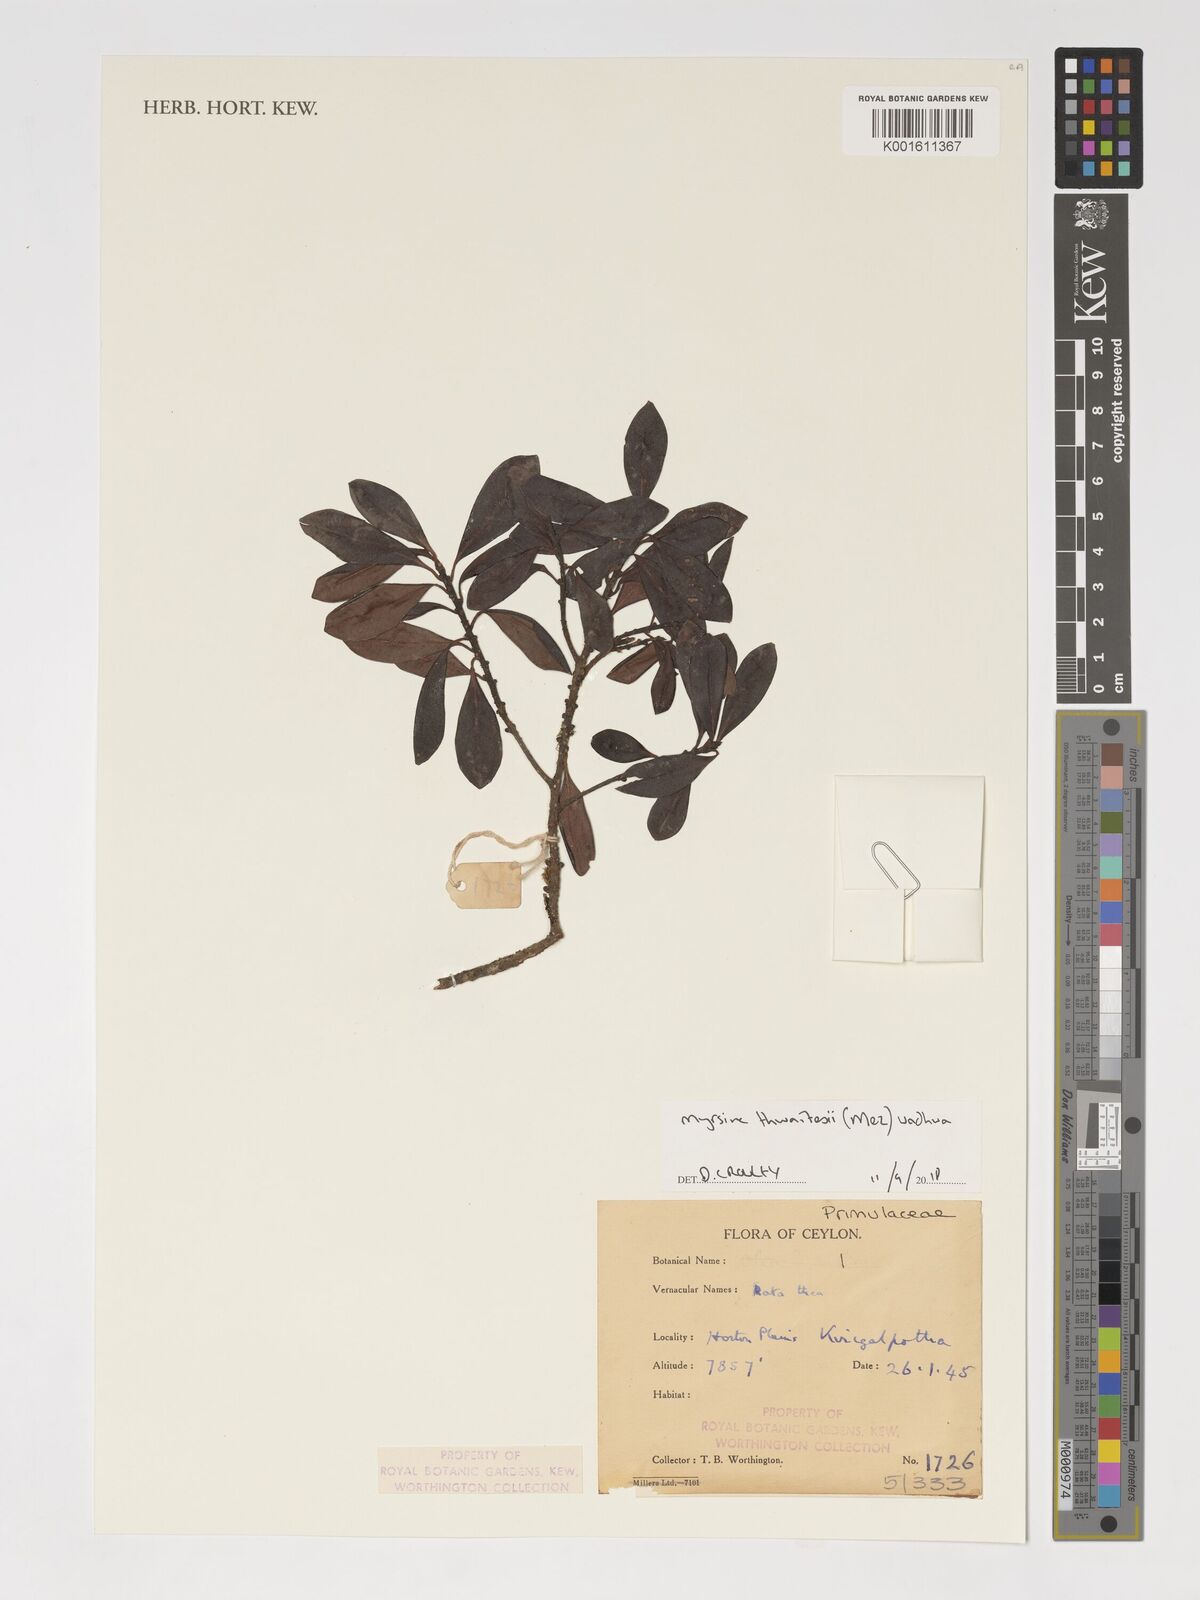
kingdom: Plantae
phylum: Tracheophyta
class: Magnoliopsida
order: Ericales
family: Primulaceae
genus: Myrsine
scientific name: Myrsine thwaitesii
